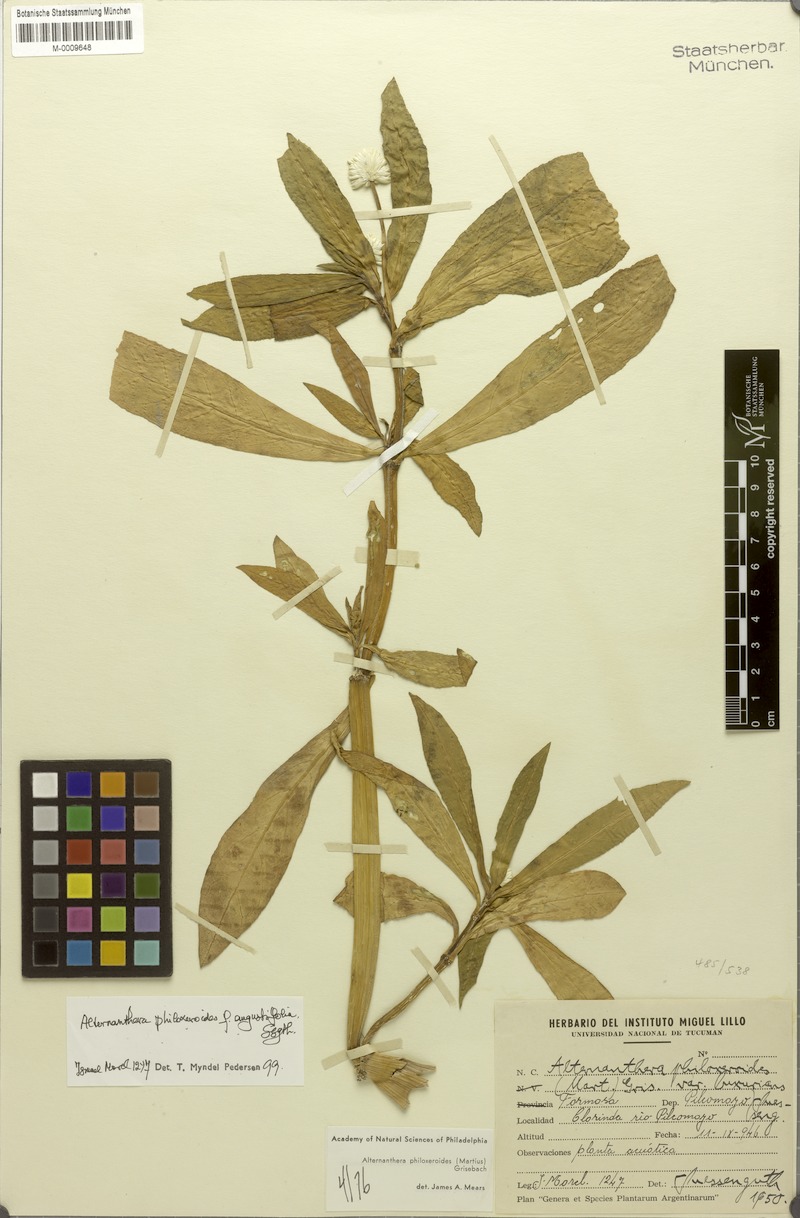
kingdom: Plantae
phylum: Tracheophyta
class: Magnoliopsida
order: Caryophyllales
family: Amaranthaceae
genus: Alternanthera
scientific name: Alternanthera philoxeroides
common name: Alligatorweed
